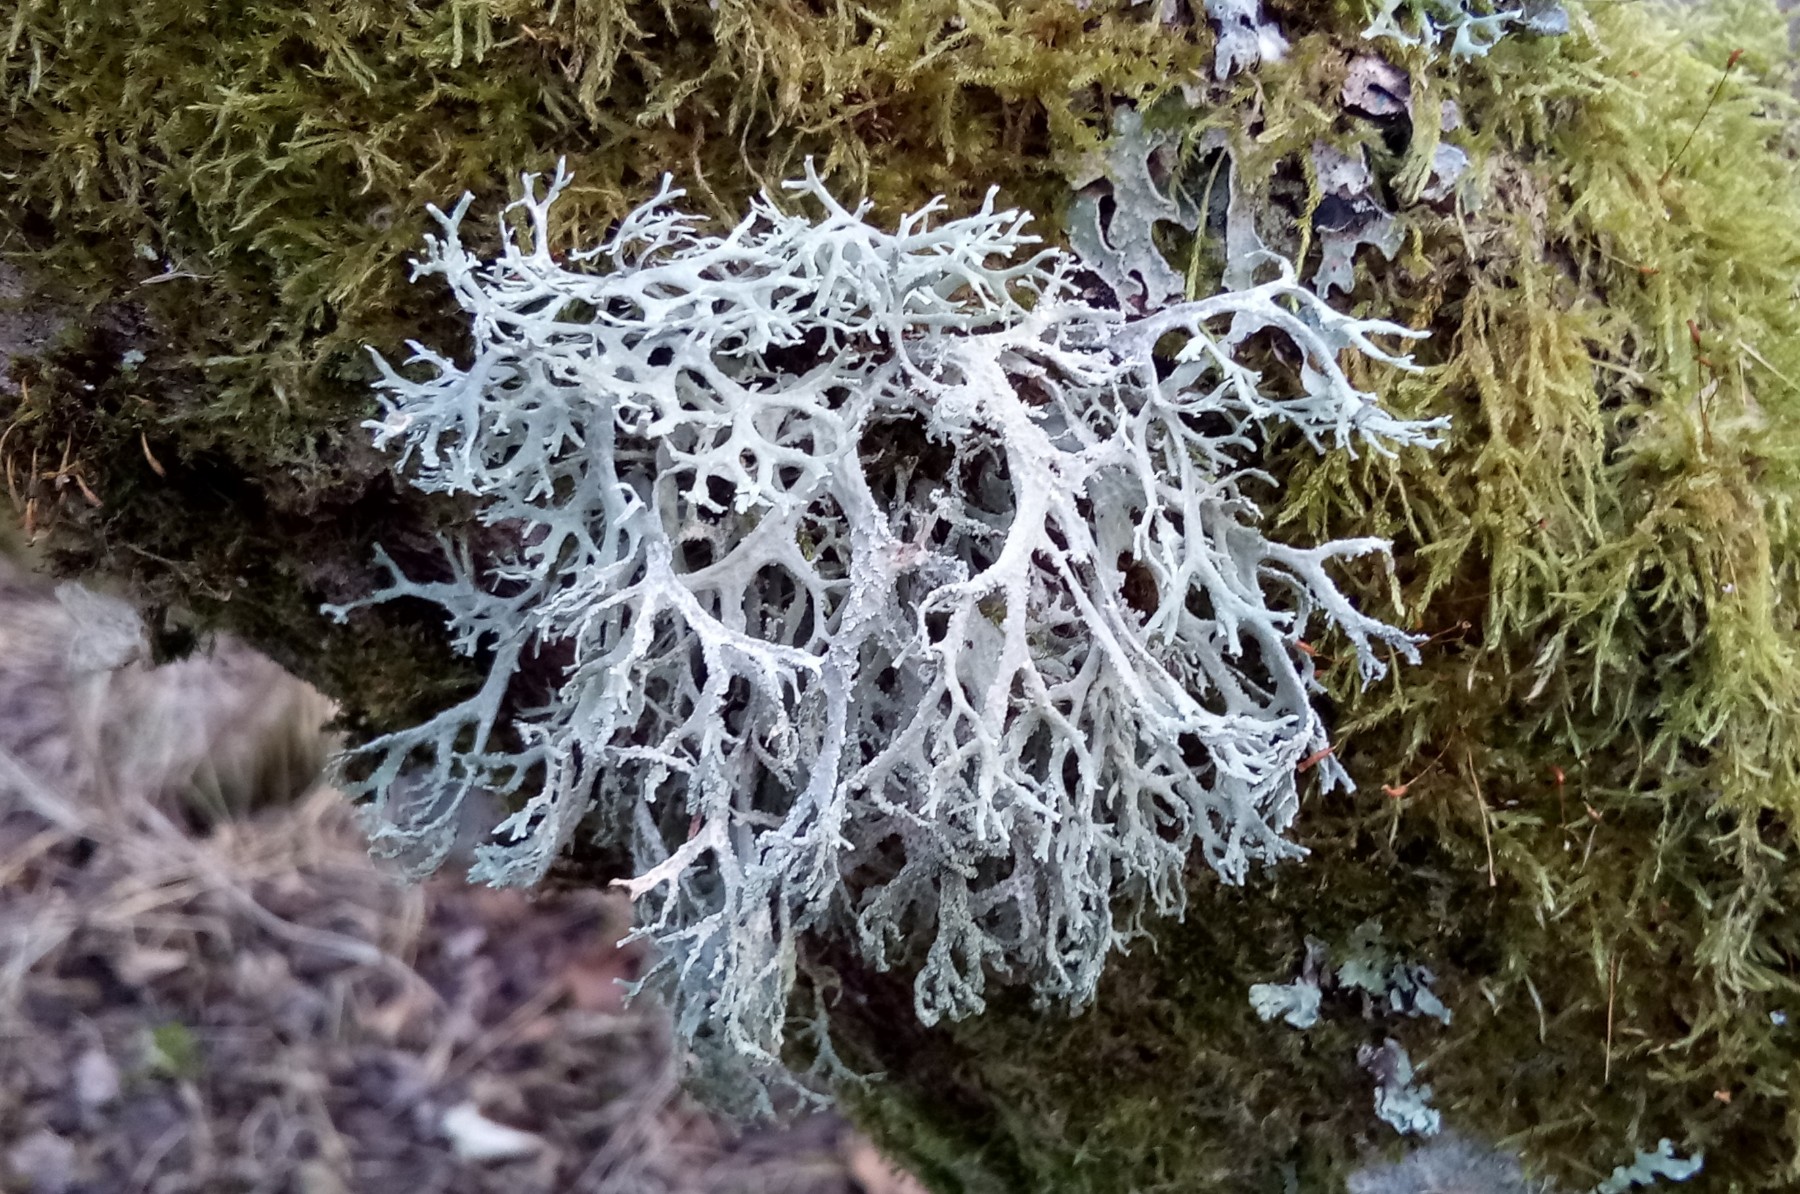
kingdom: Fungi
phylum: Ascomycota
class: Lecanoromycetes
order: Lecanorales
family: Parmeliaceae
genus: Evernia
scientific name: Evernia prunastri
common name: almindelig slåenlav
